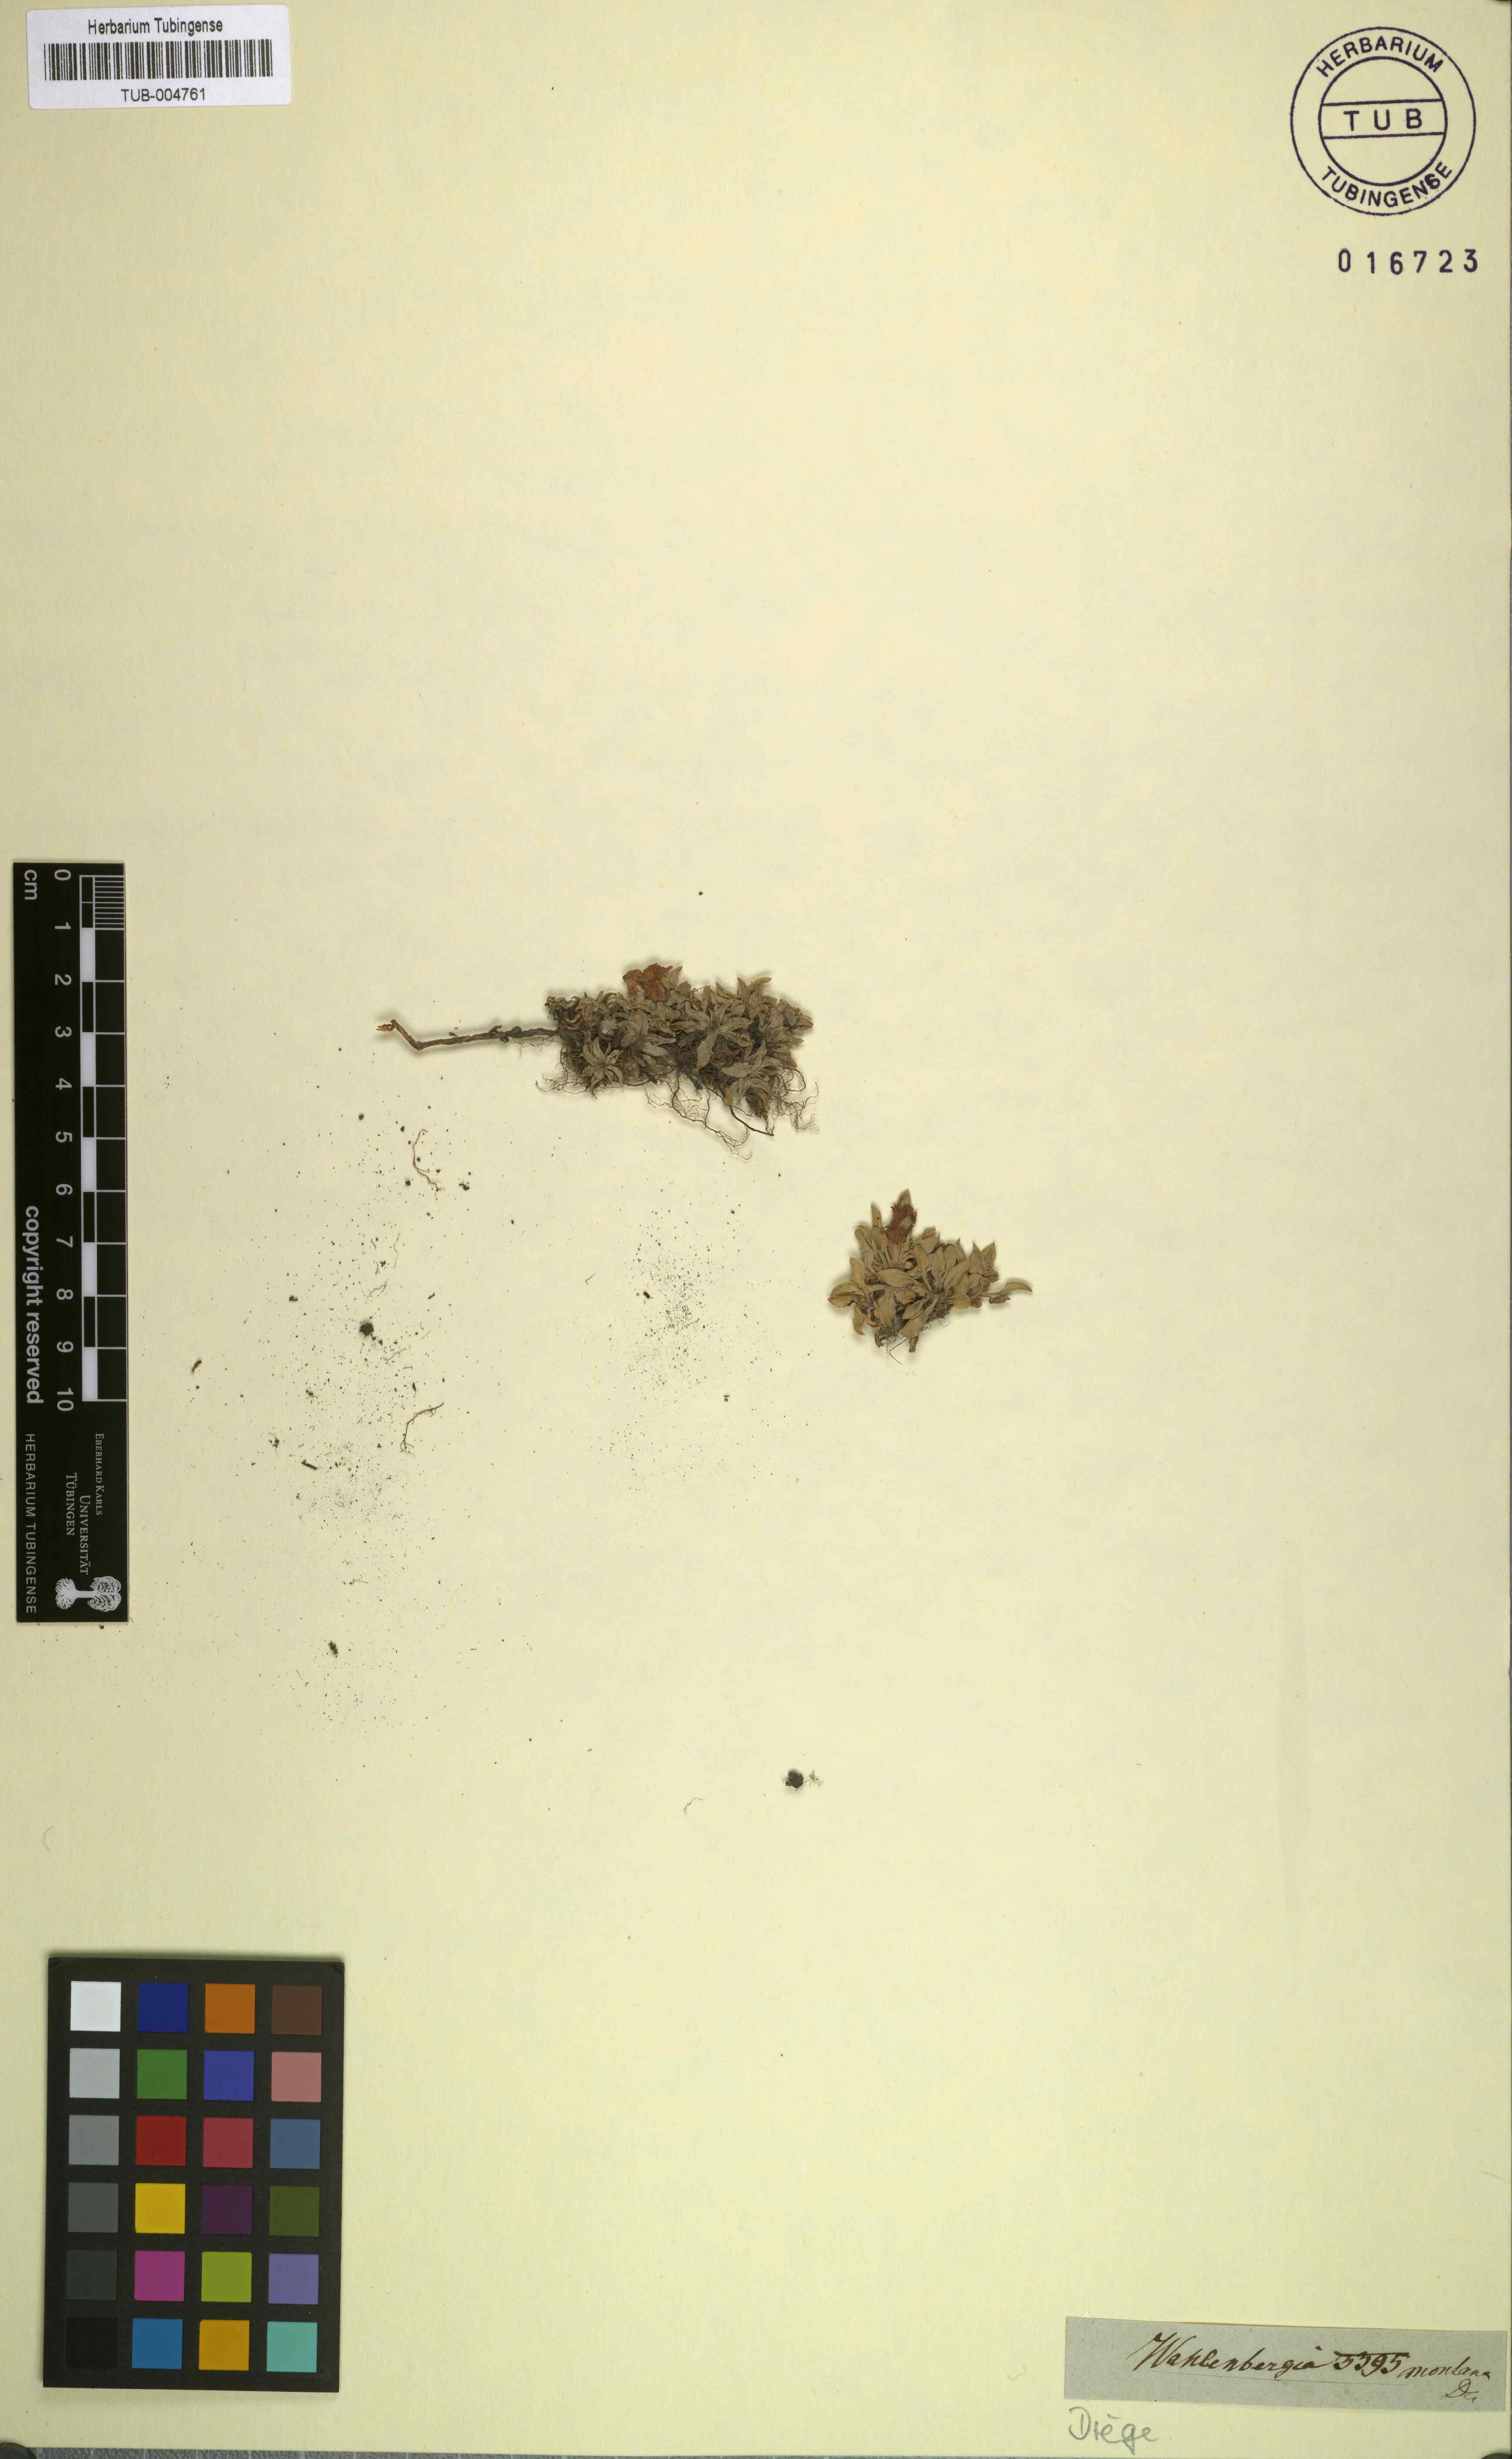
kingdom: Plantae
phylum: Tracheophyta
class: Magnoliopsida
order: Asterales
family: Campanulaceae
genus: Craterocapsa
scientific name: Craterocapsa montana
